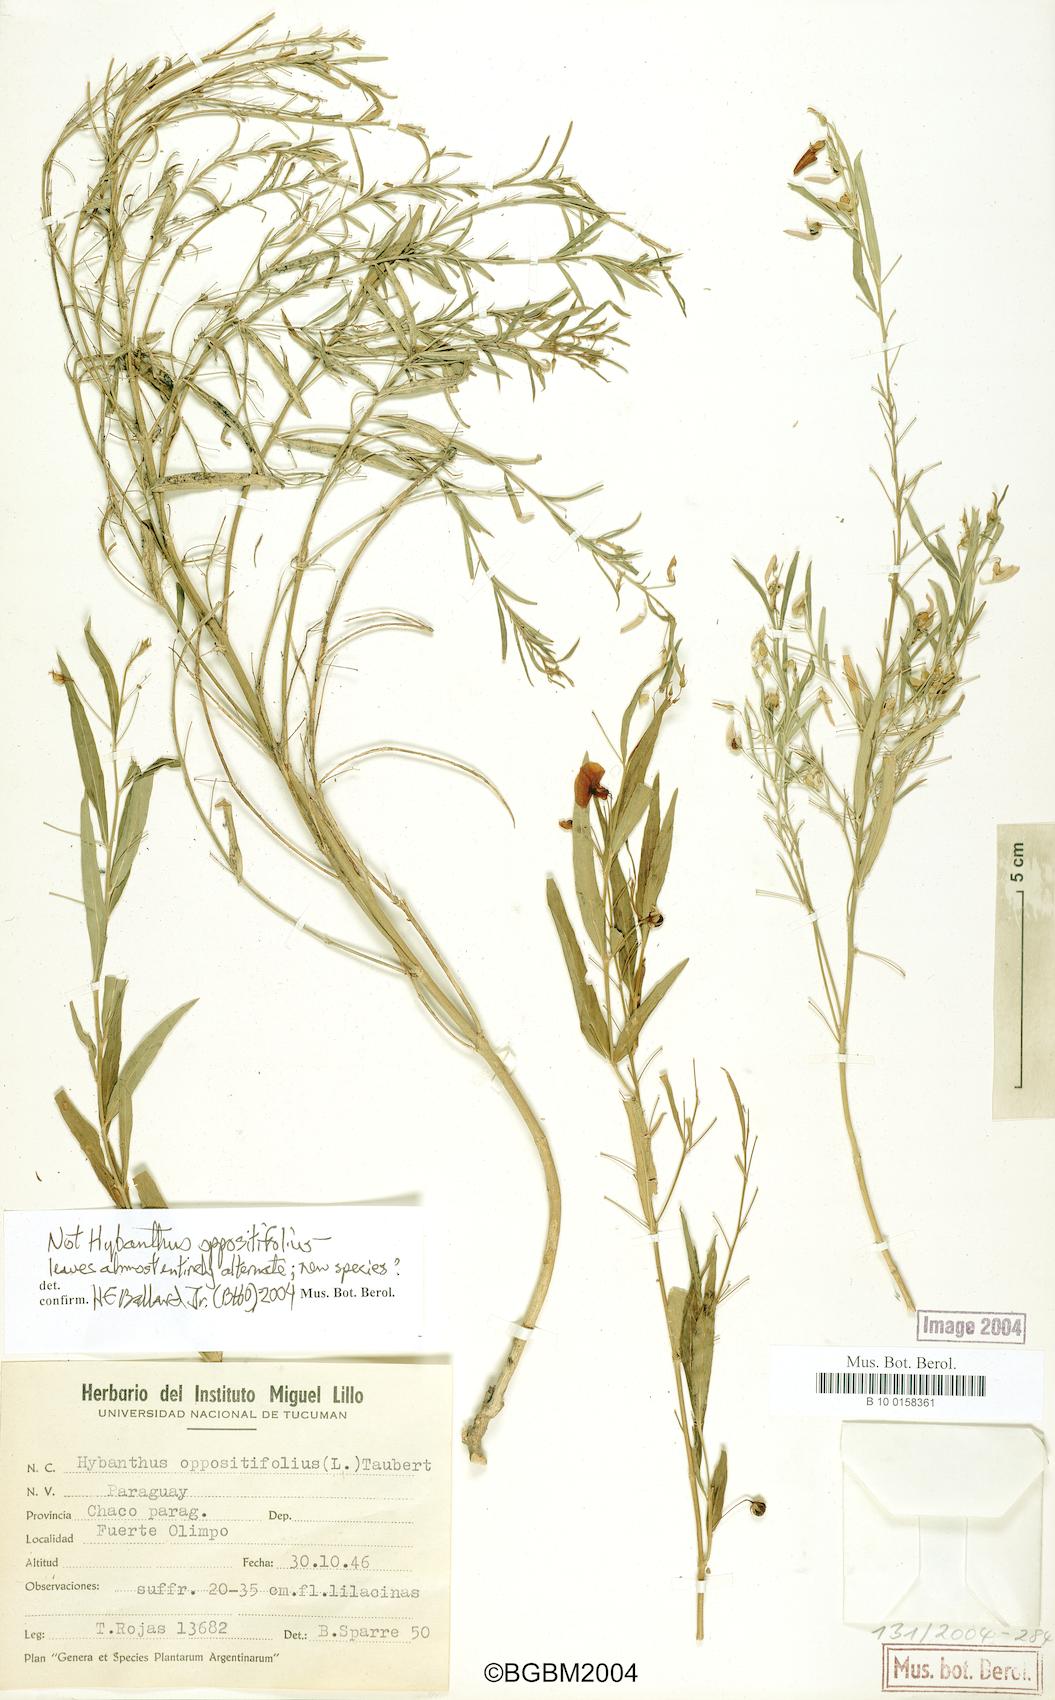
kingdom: Plantae
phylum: Tracheophyta
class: Magnoliopsida
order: Malpighiales
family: Violaceae
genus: Pombalia
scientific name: Pombalia oppositifolia
